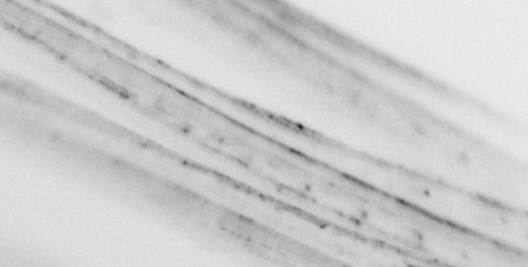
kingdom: Animalia
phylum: Chordata
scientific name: Chordata
